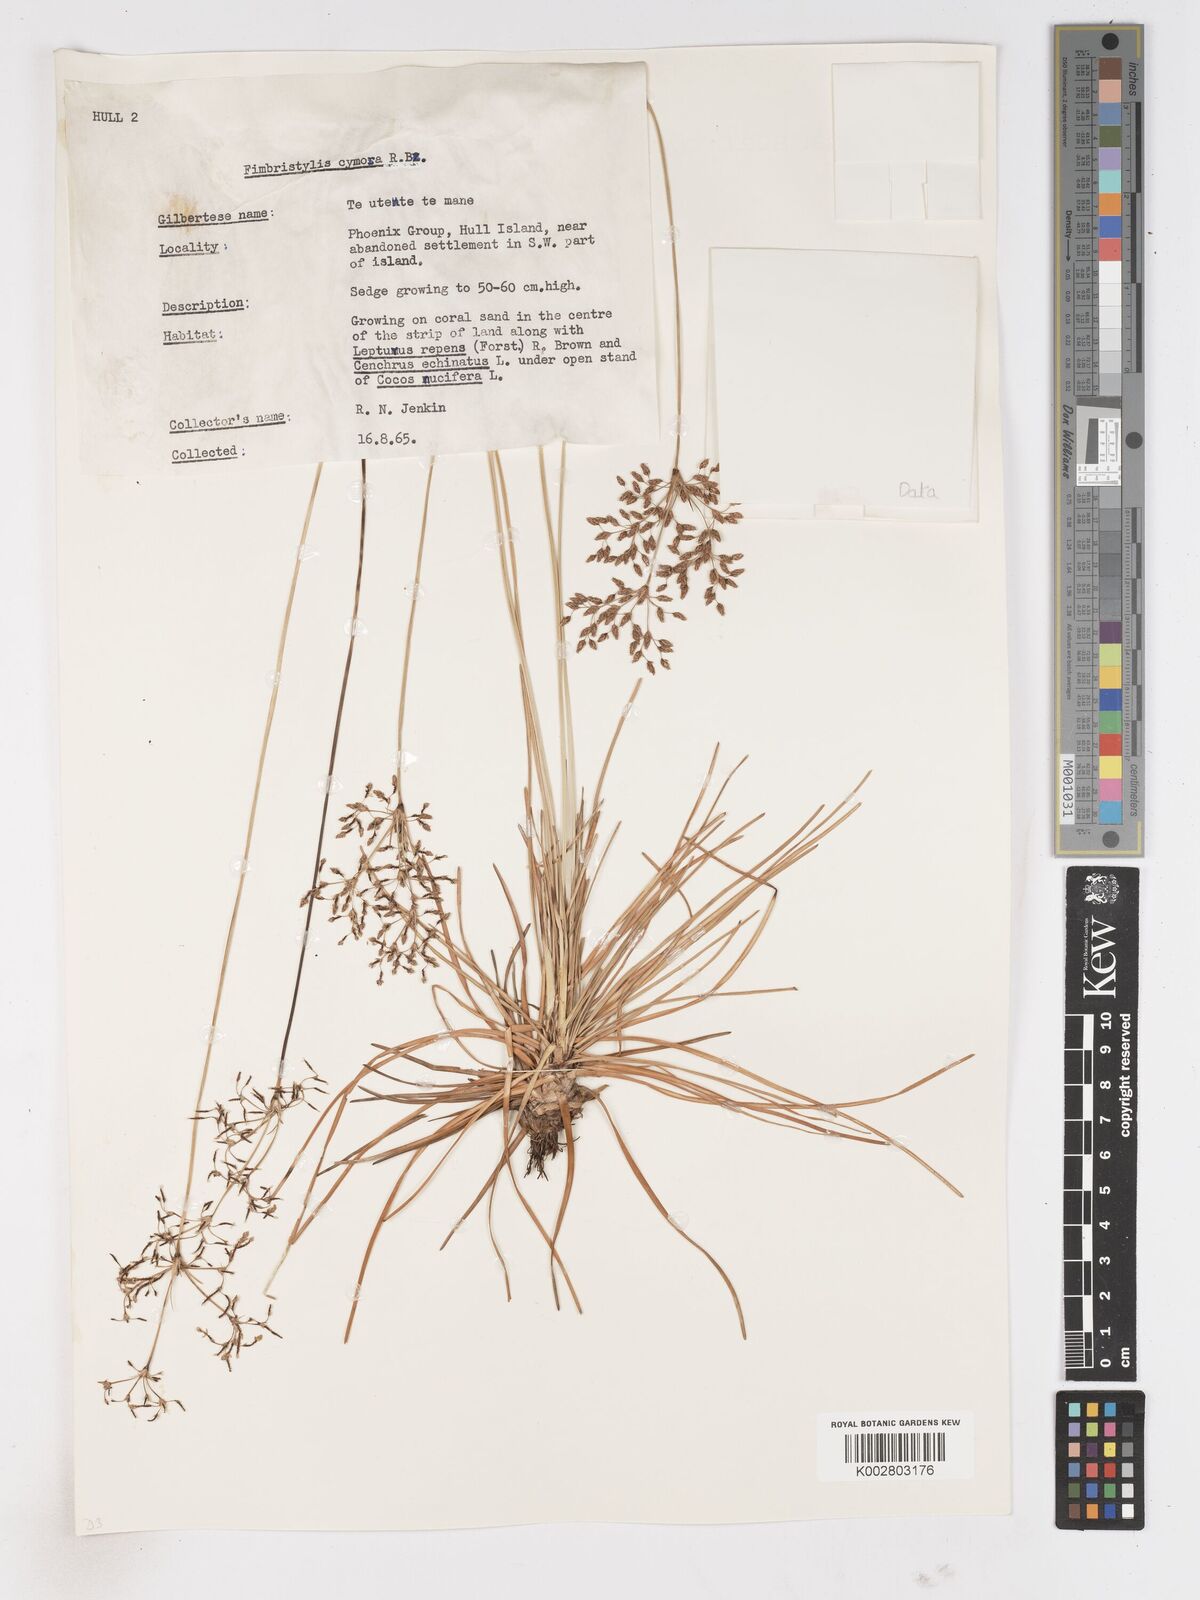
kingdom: Plantae
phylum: Tracheophyta
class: Liliopsida
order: Poales
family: Cyperaceae
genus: Fimbristylis
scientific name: Fimbristylis cymosa
